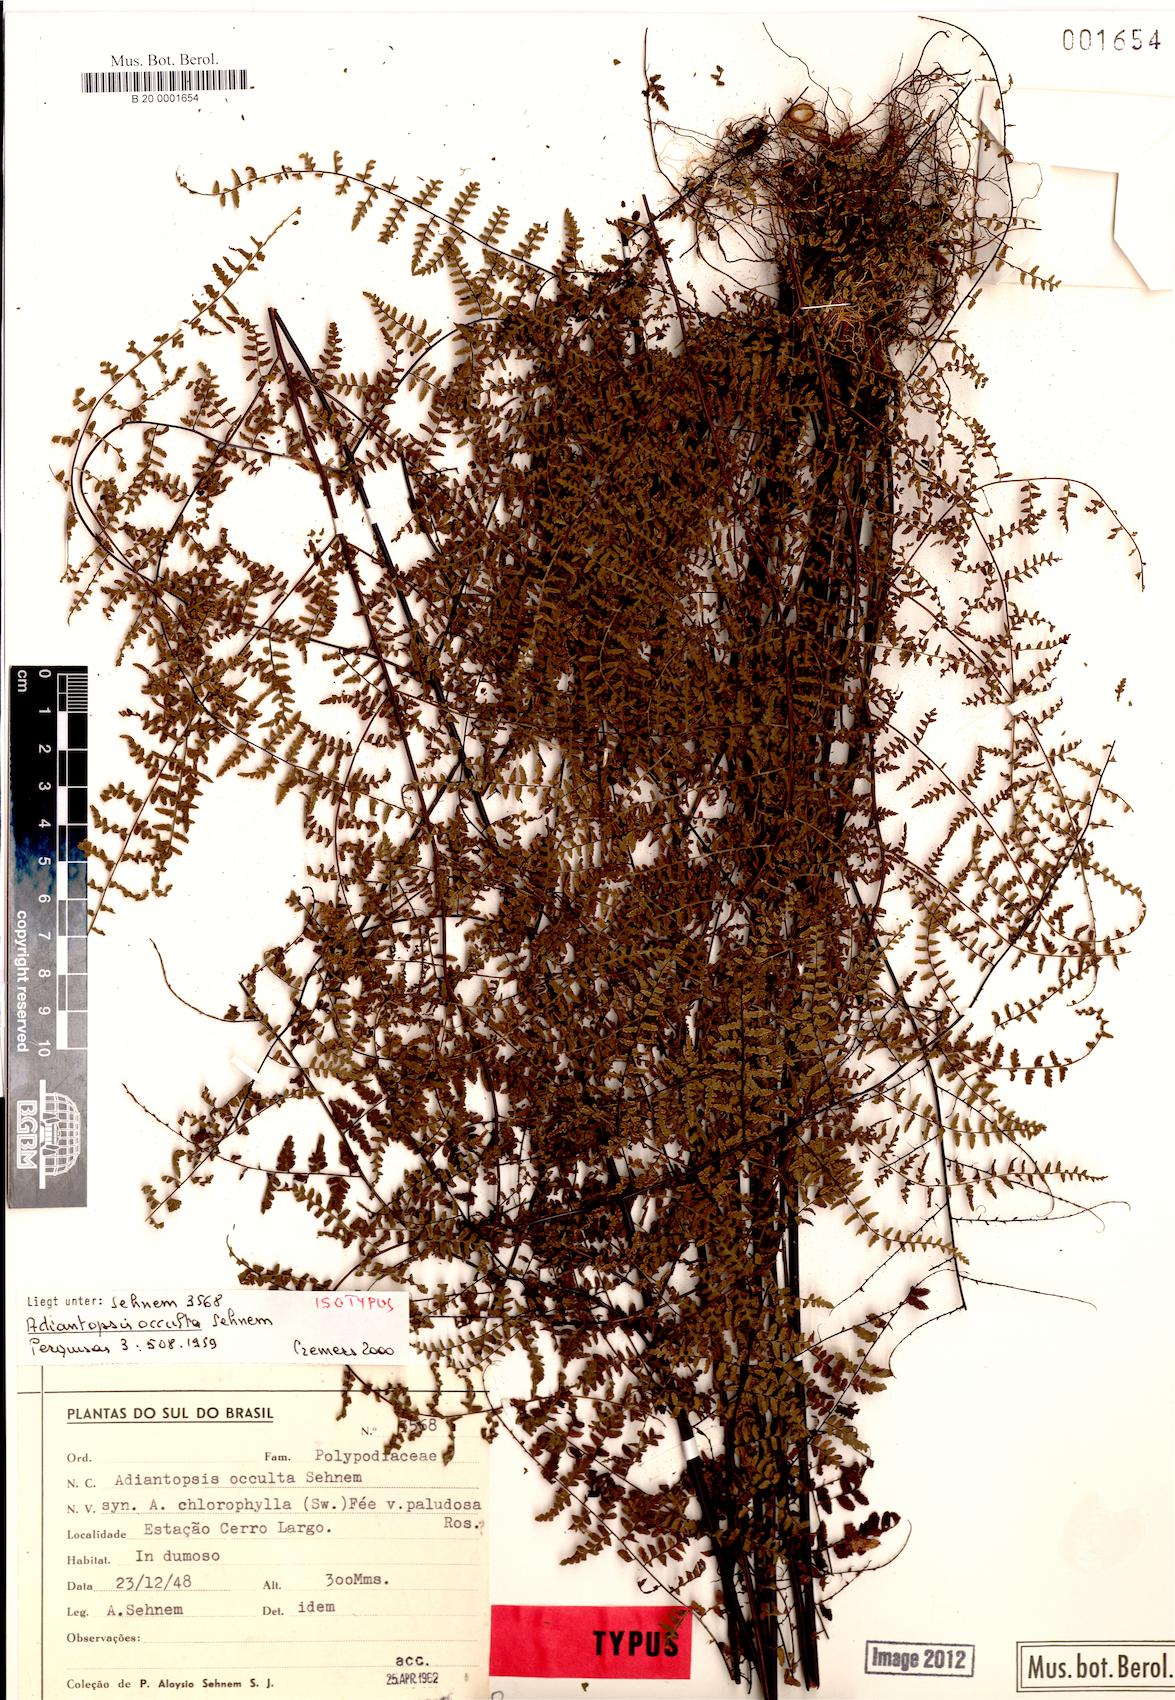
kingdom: Plantae
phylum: Tracheophyta
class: Polypodiopsida
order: Polypodiales
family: Pteridaceae
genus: Adiantopsis
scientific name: Adiantopsis occulta
